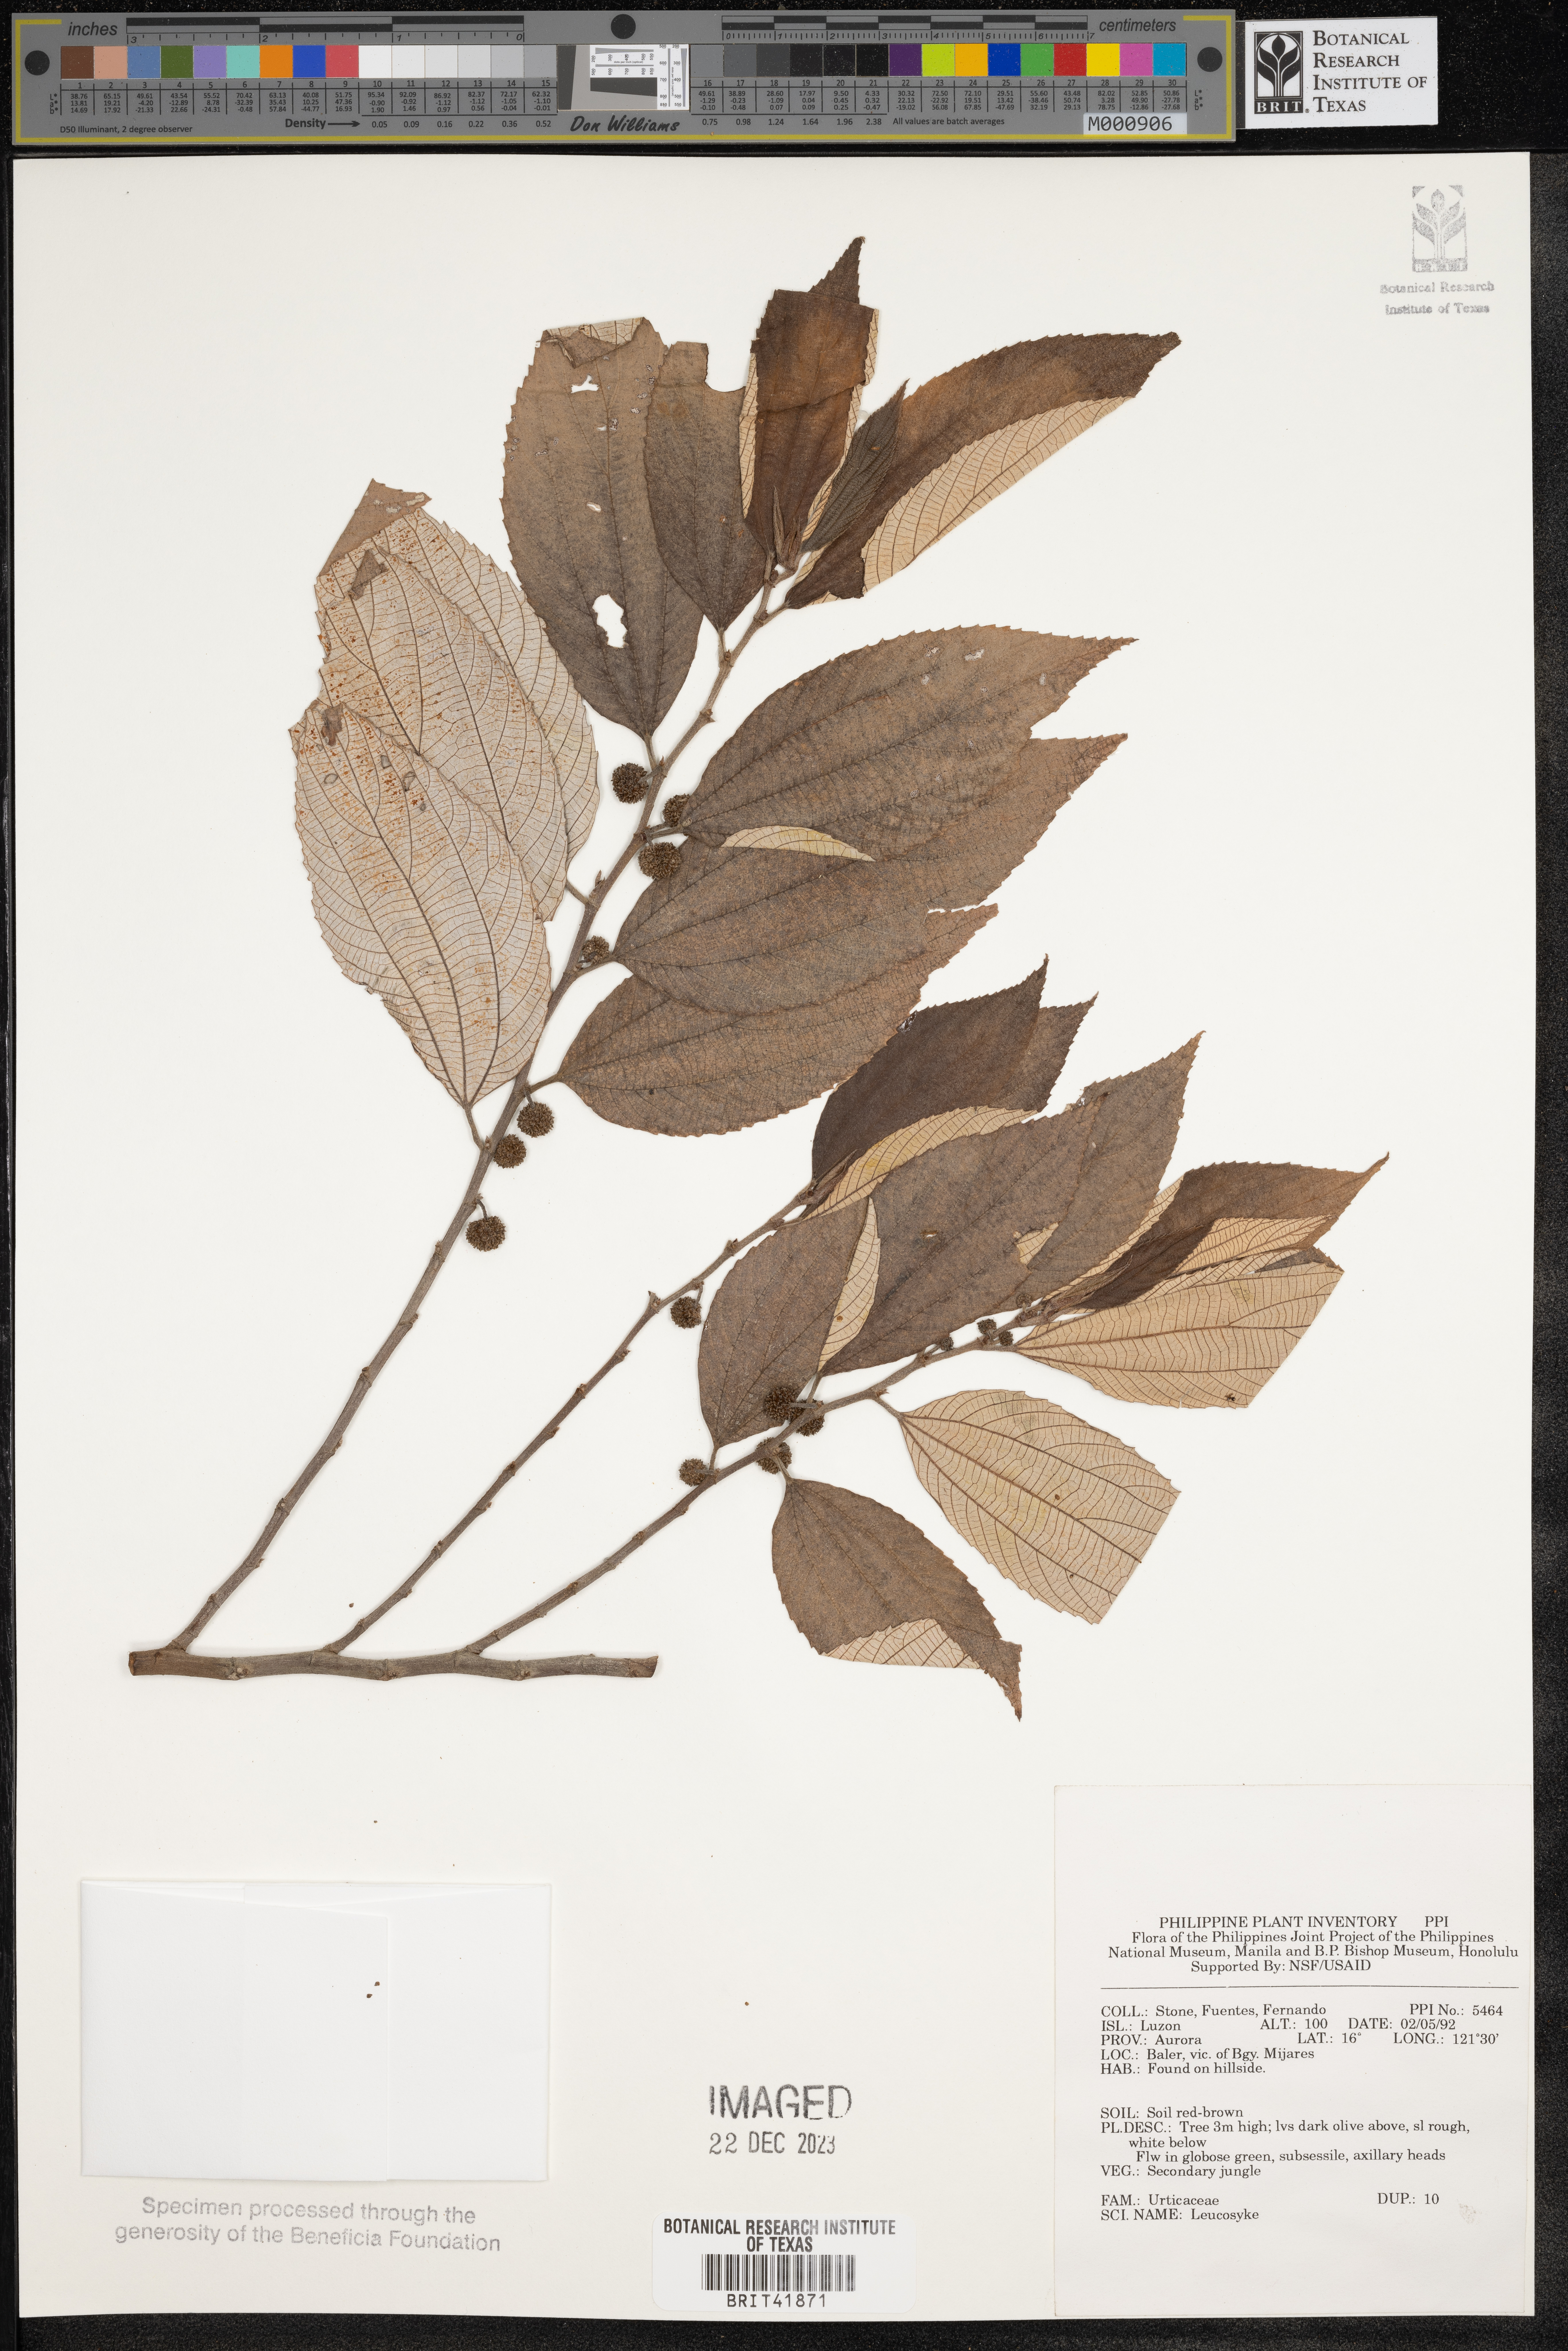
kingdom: Plantae
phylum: Tracheophyta
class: Magnoliopsida
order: Rosales
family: Urticaceae
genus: Leucosyke
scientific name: Leucosyke
